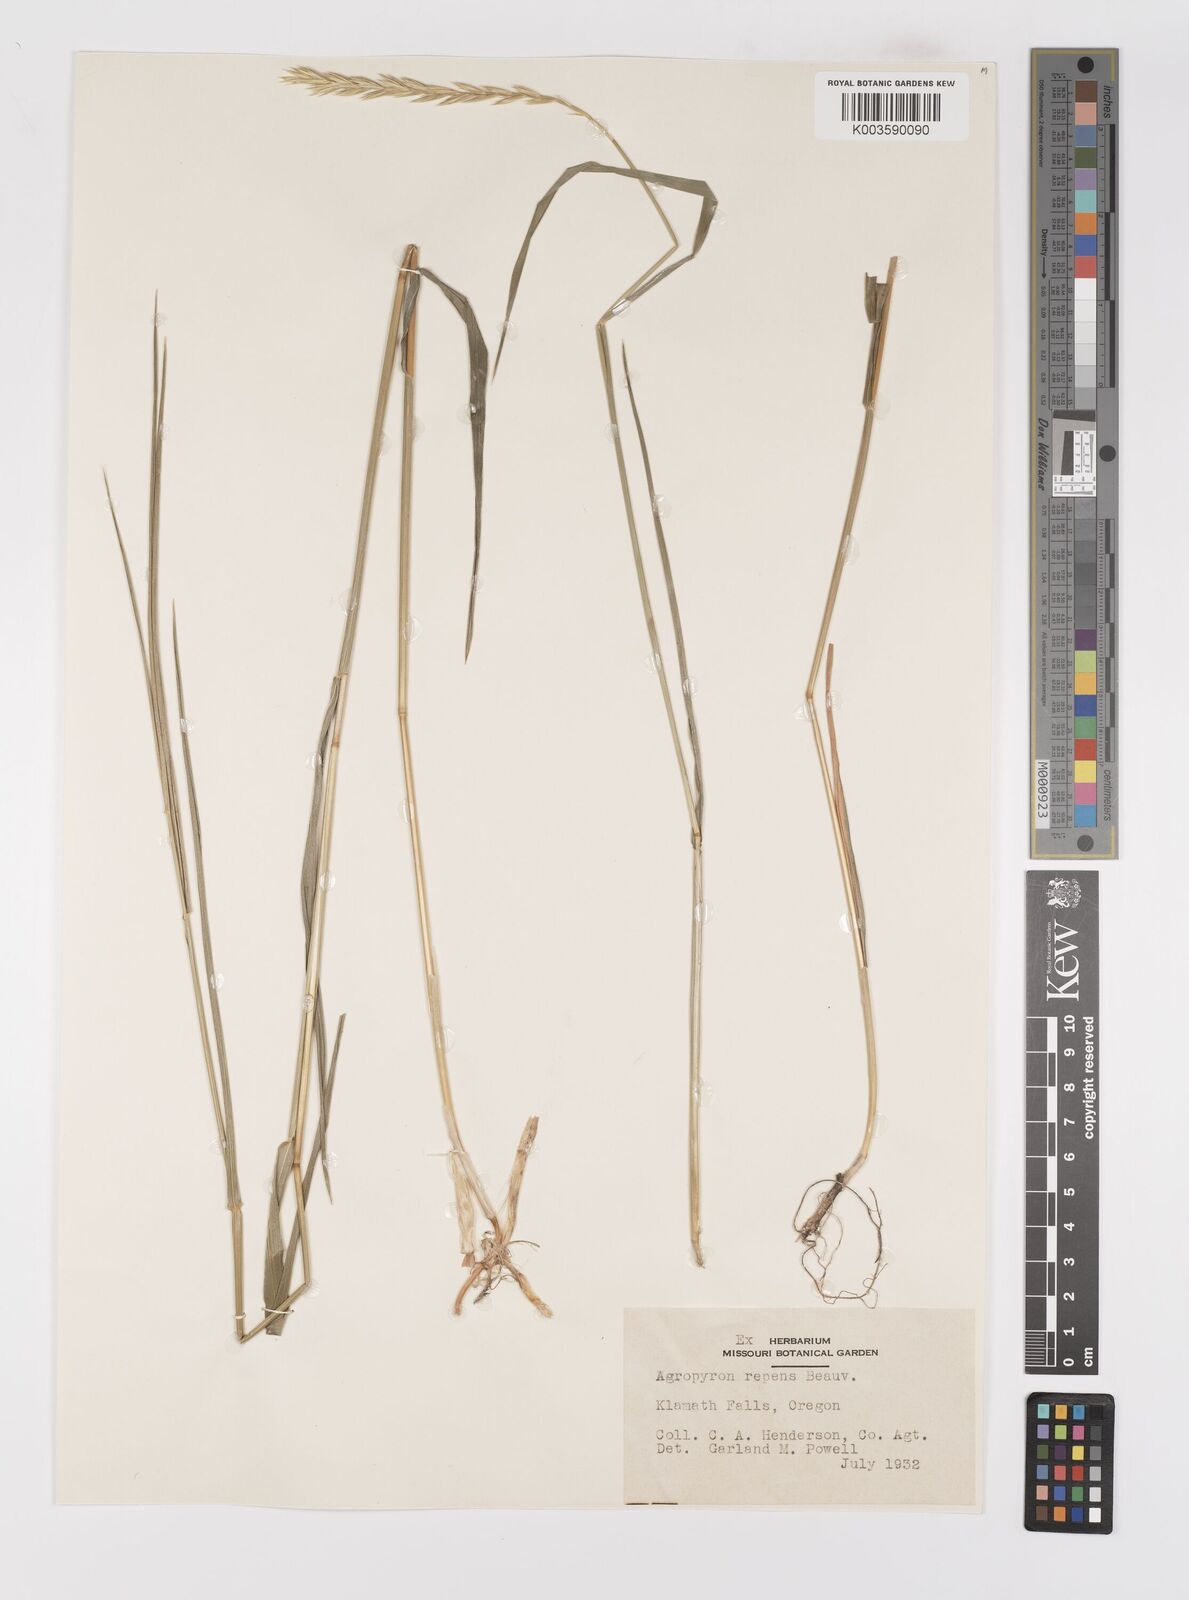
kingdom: Plantae
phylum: Tracheophyta
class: Liliopsida
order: Poales
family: Poaceae
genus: Elymus
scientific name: Elymus repens
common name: Quackgrass
